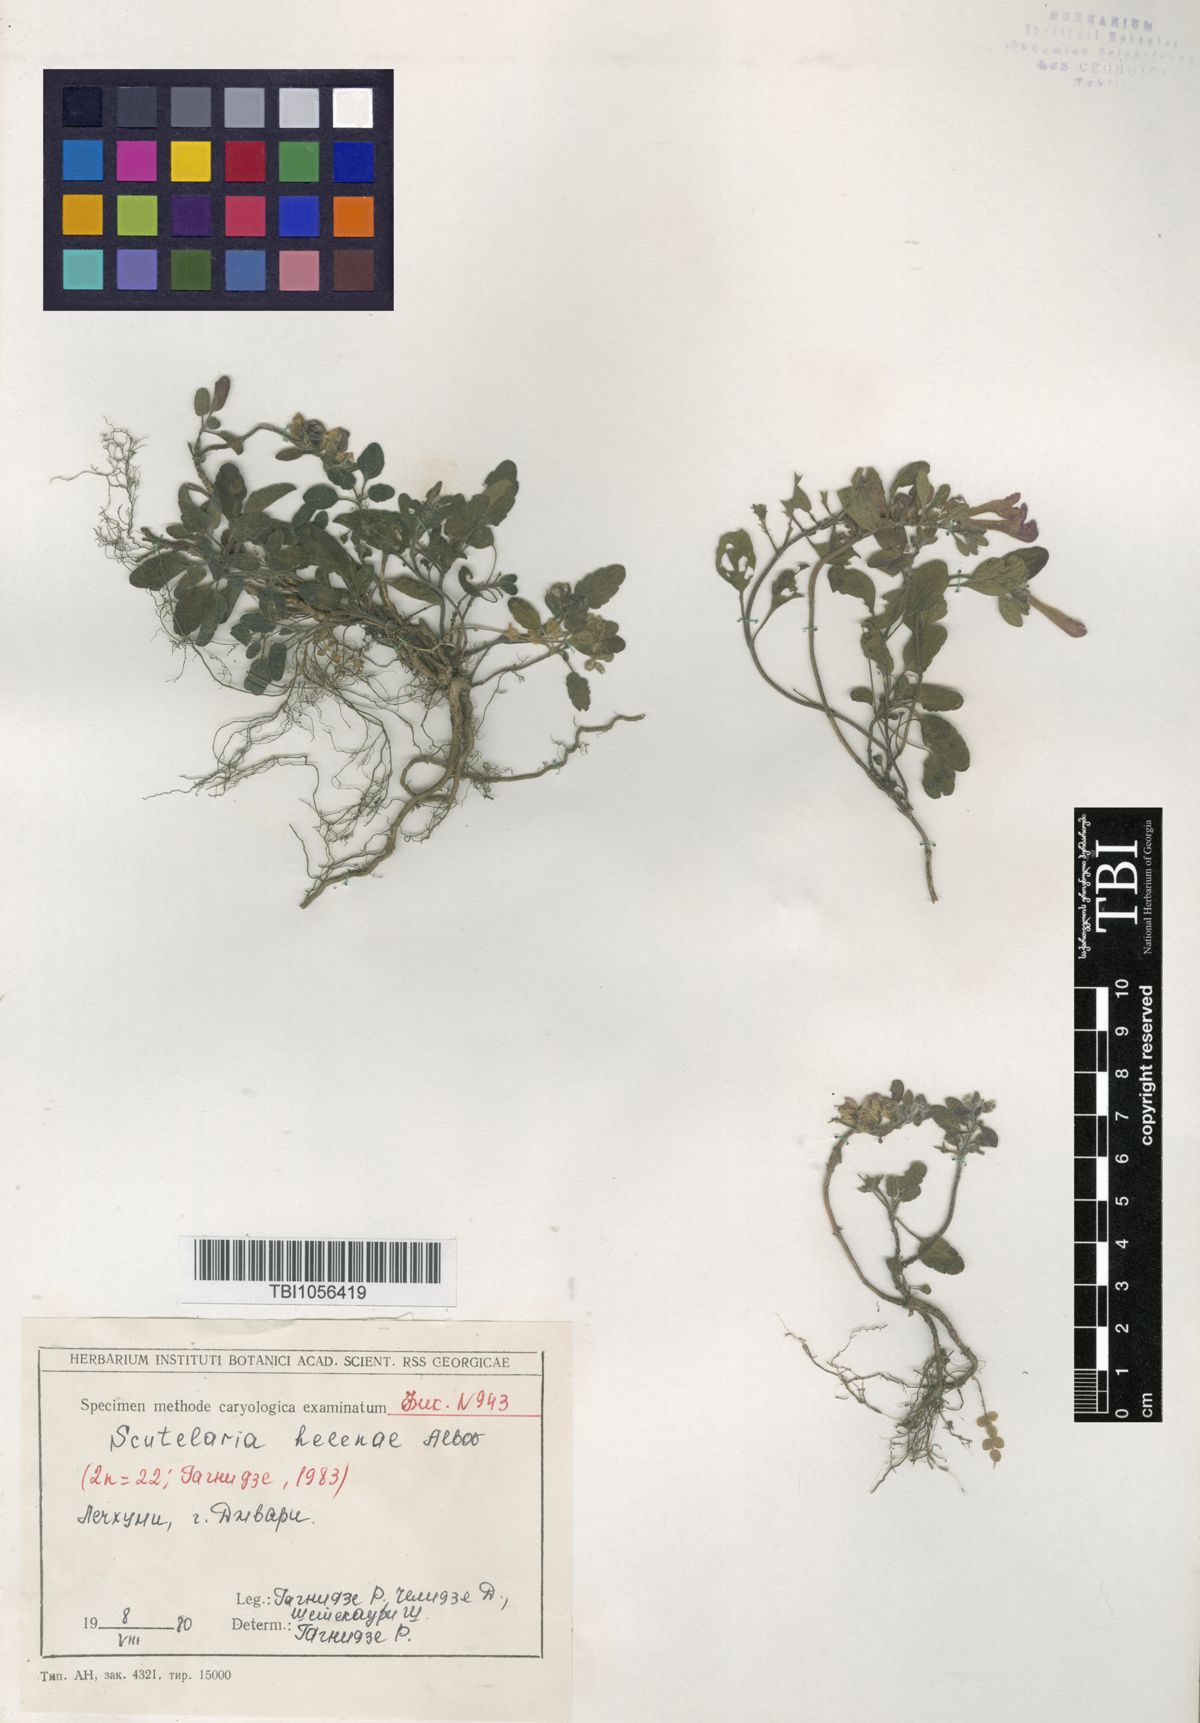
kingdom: Plantae
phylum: Tracheophyta
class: Magnoliopsida
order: Lamiales
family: Lamiaceae
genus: Scutellaria
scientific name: Scutellaria helenae
